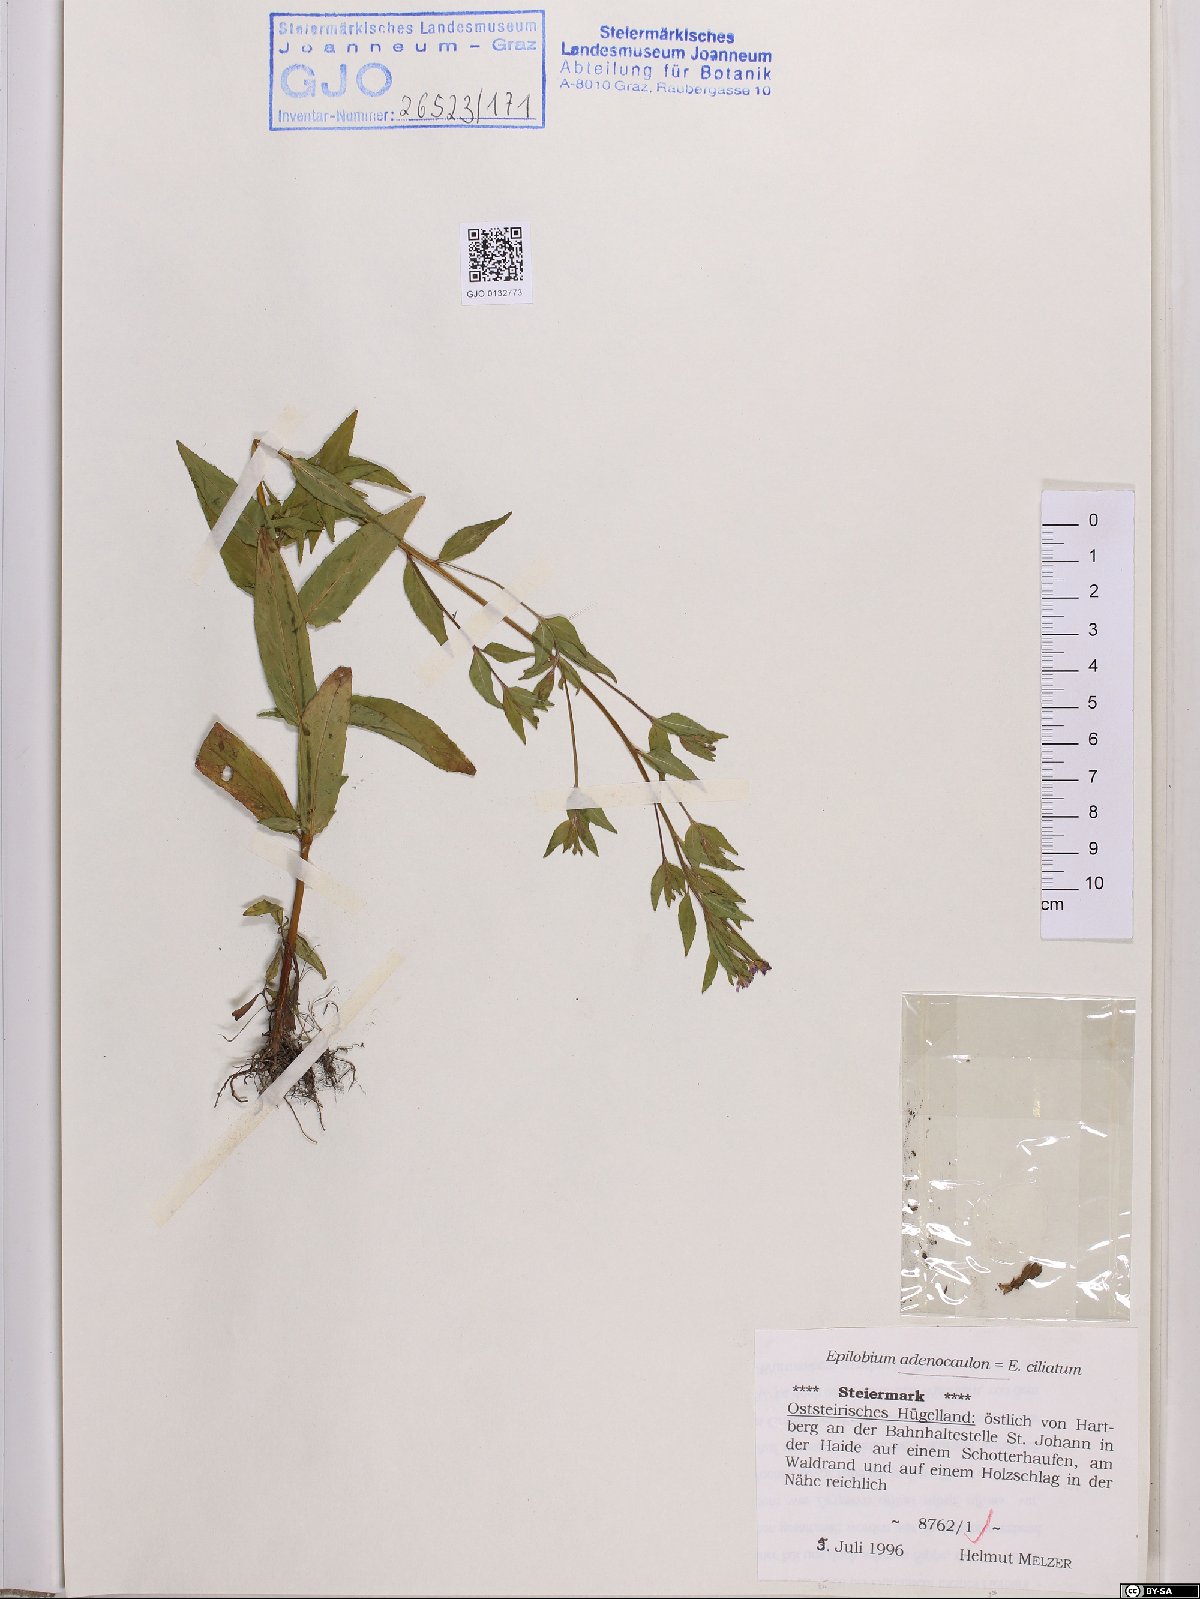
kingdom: Plantae
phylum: Tracheophyta
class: Magnoliopsida
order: Myrtales
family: Onagraceae
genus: Epilobium
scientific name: Epilobium ciliatum
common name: American willowherb
